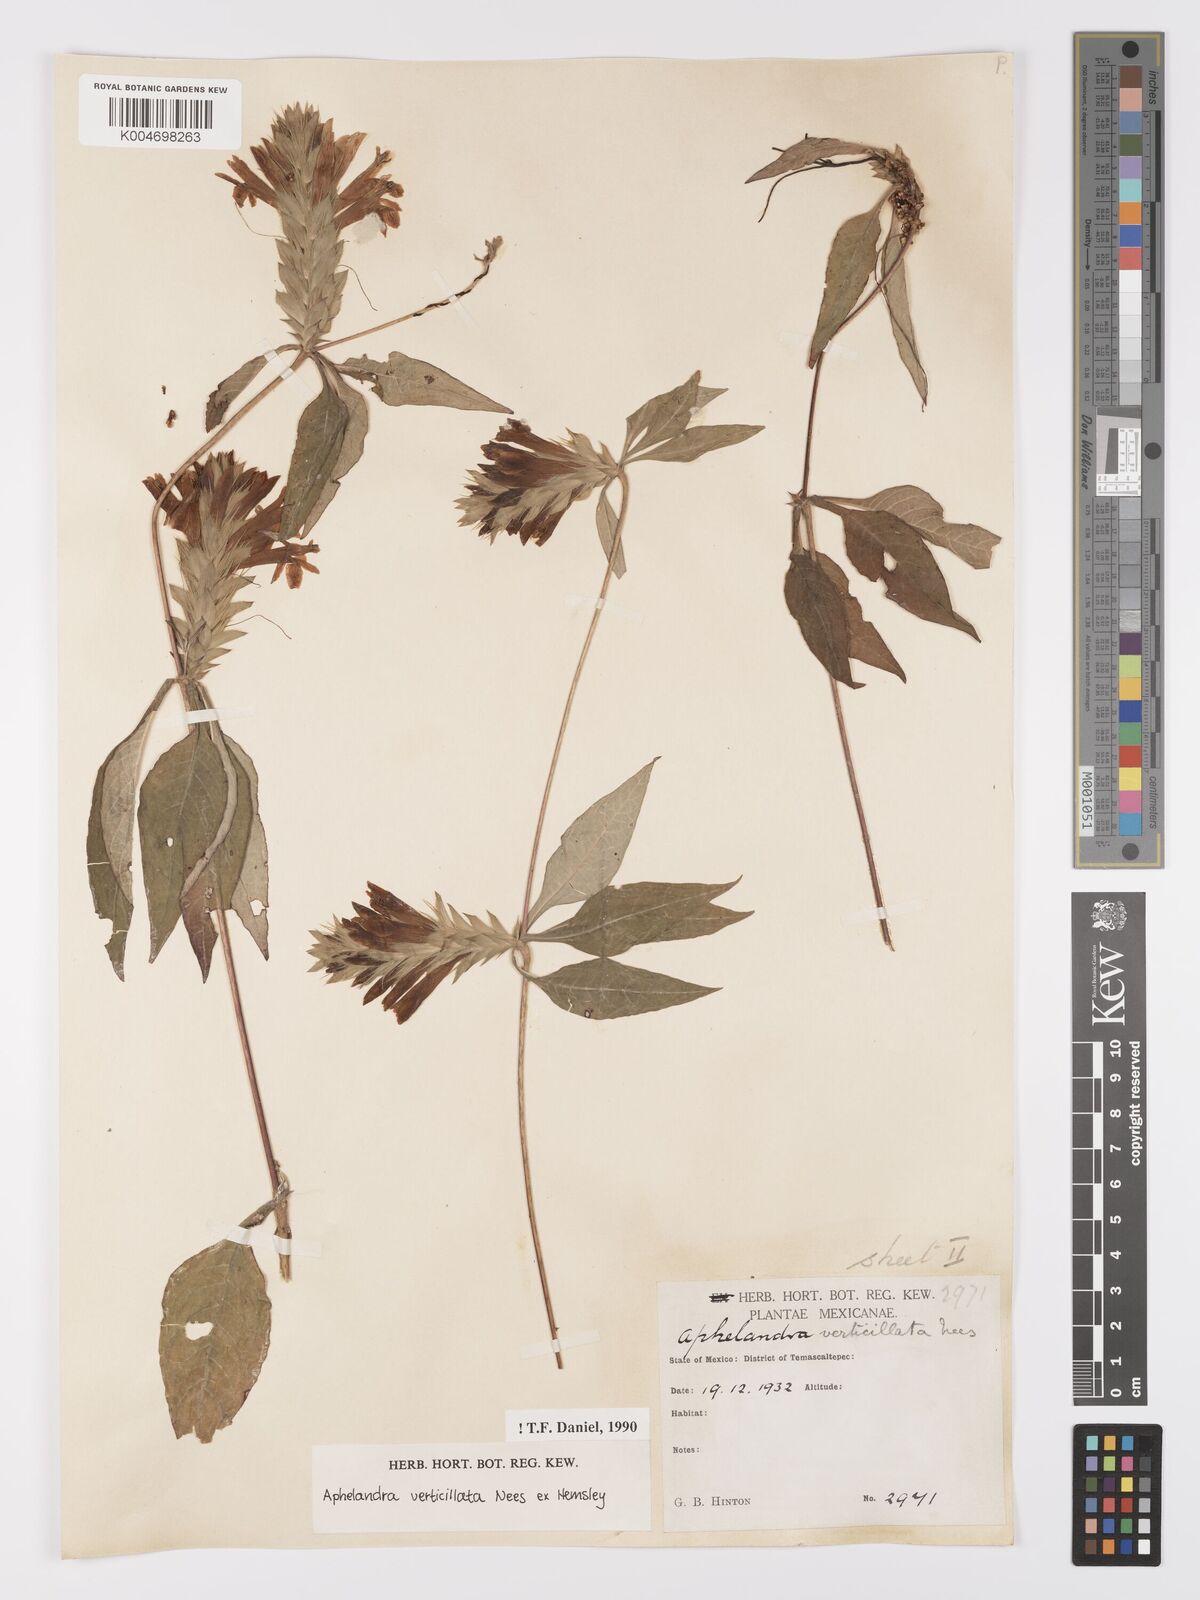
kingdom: Plantae
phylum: Tracheophyta
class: Magnoliopsida
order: Lamiales
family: Acanthaceae
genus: Holographis
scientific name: Holographis haenkeana
